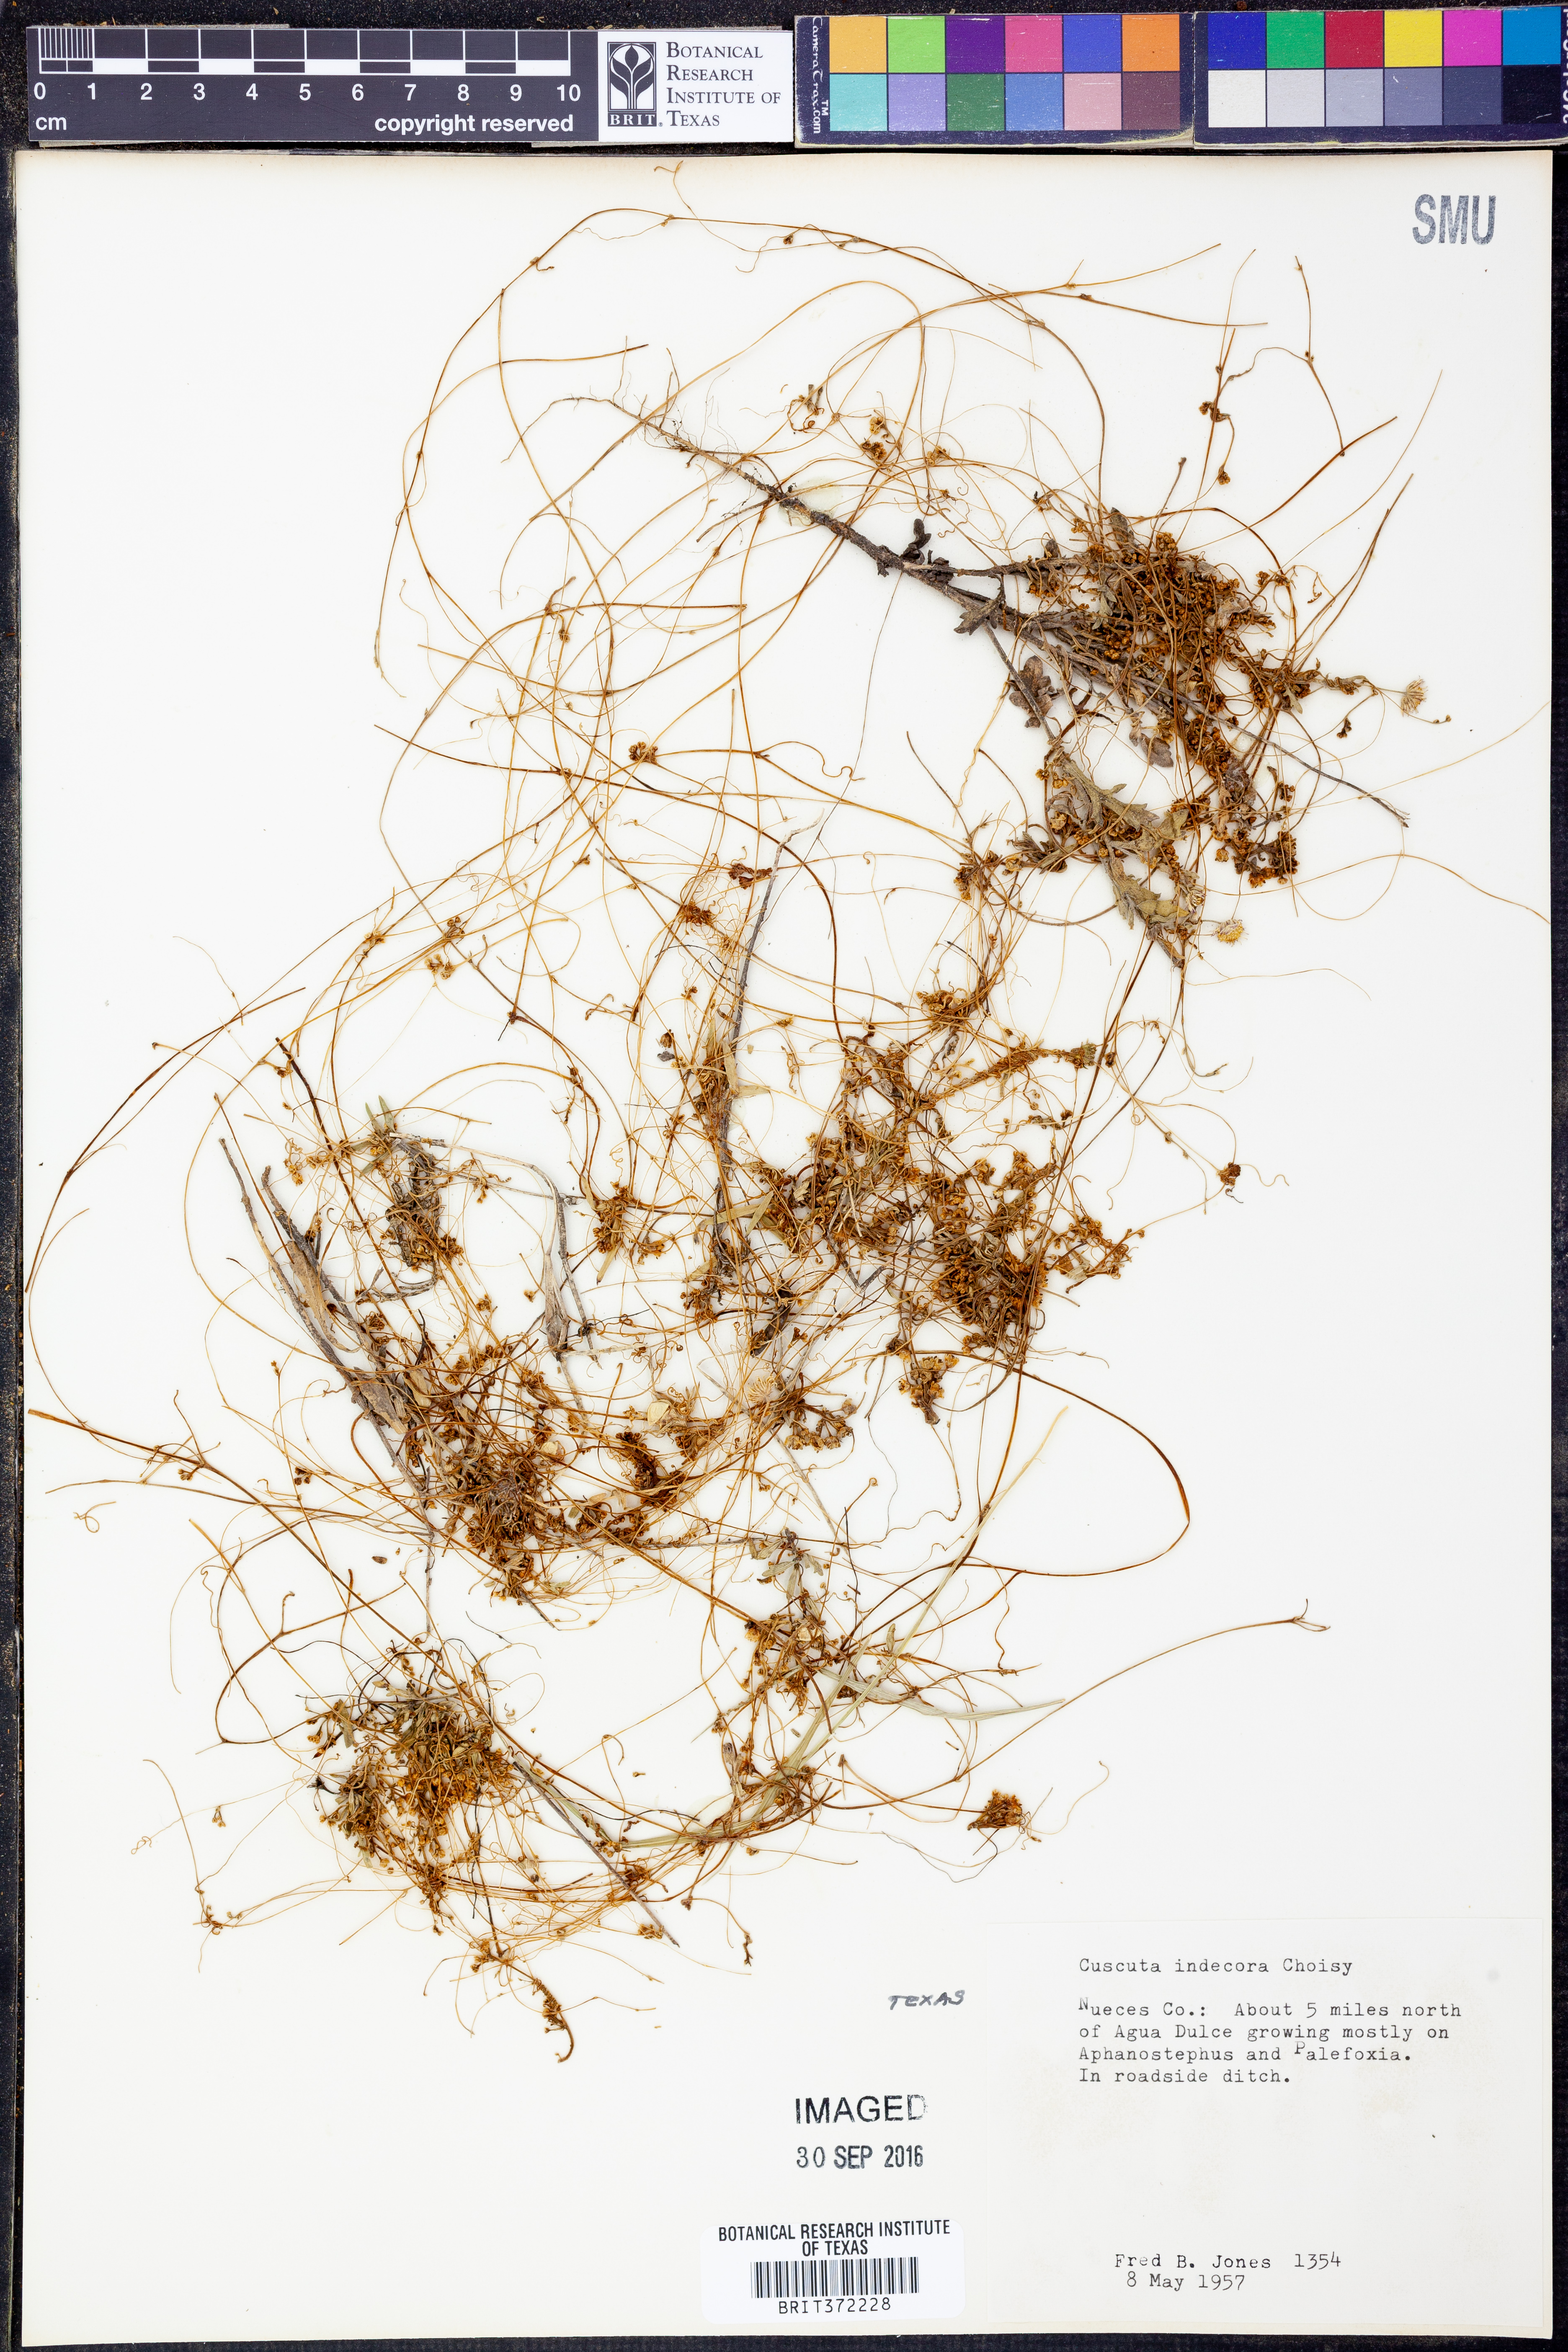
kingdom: Plantae
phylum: Tracheophyta
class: Magnoliopsida
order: Solanales
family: Convolvulaceae
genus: Cuscuta
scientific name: Cuscuta indecora
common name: Large-seed dodder
